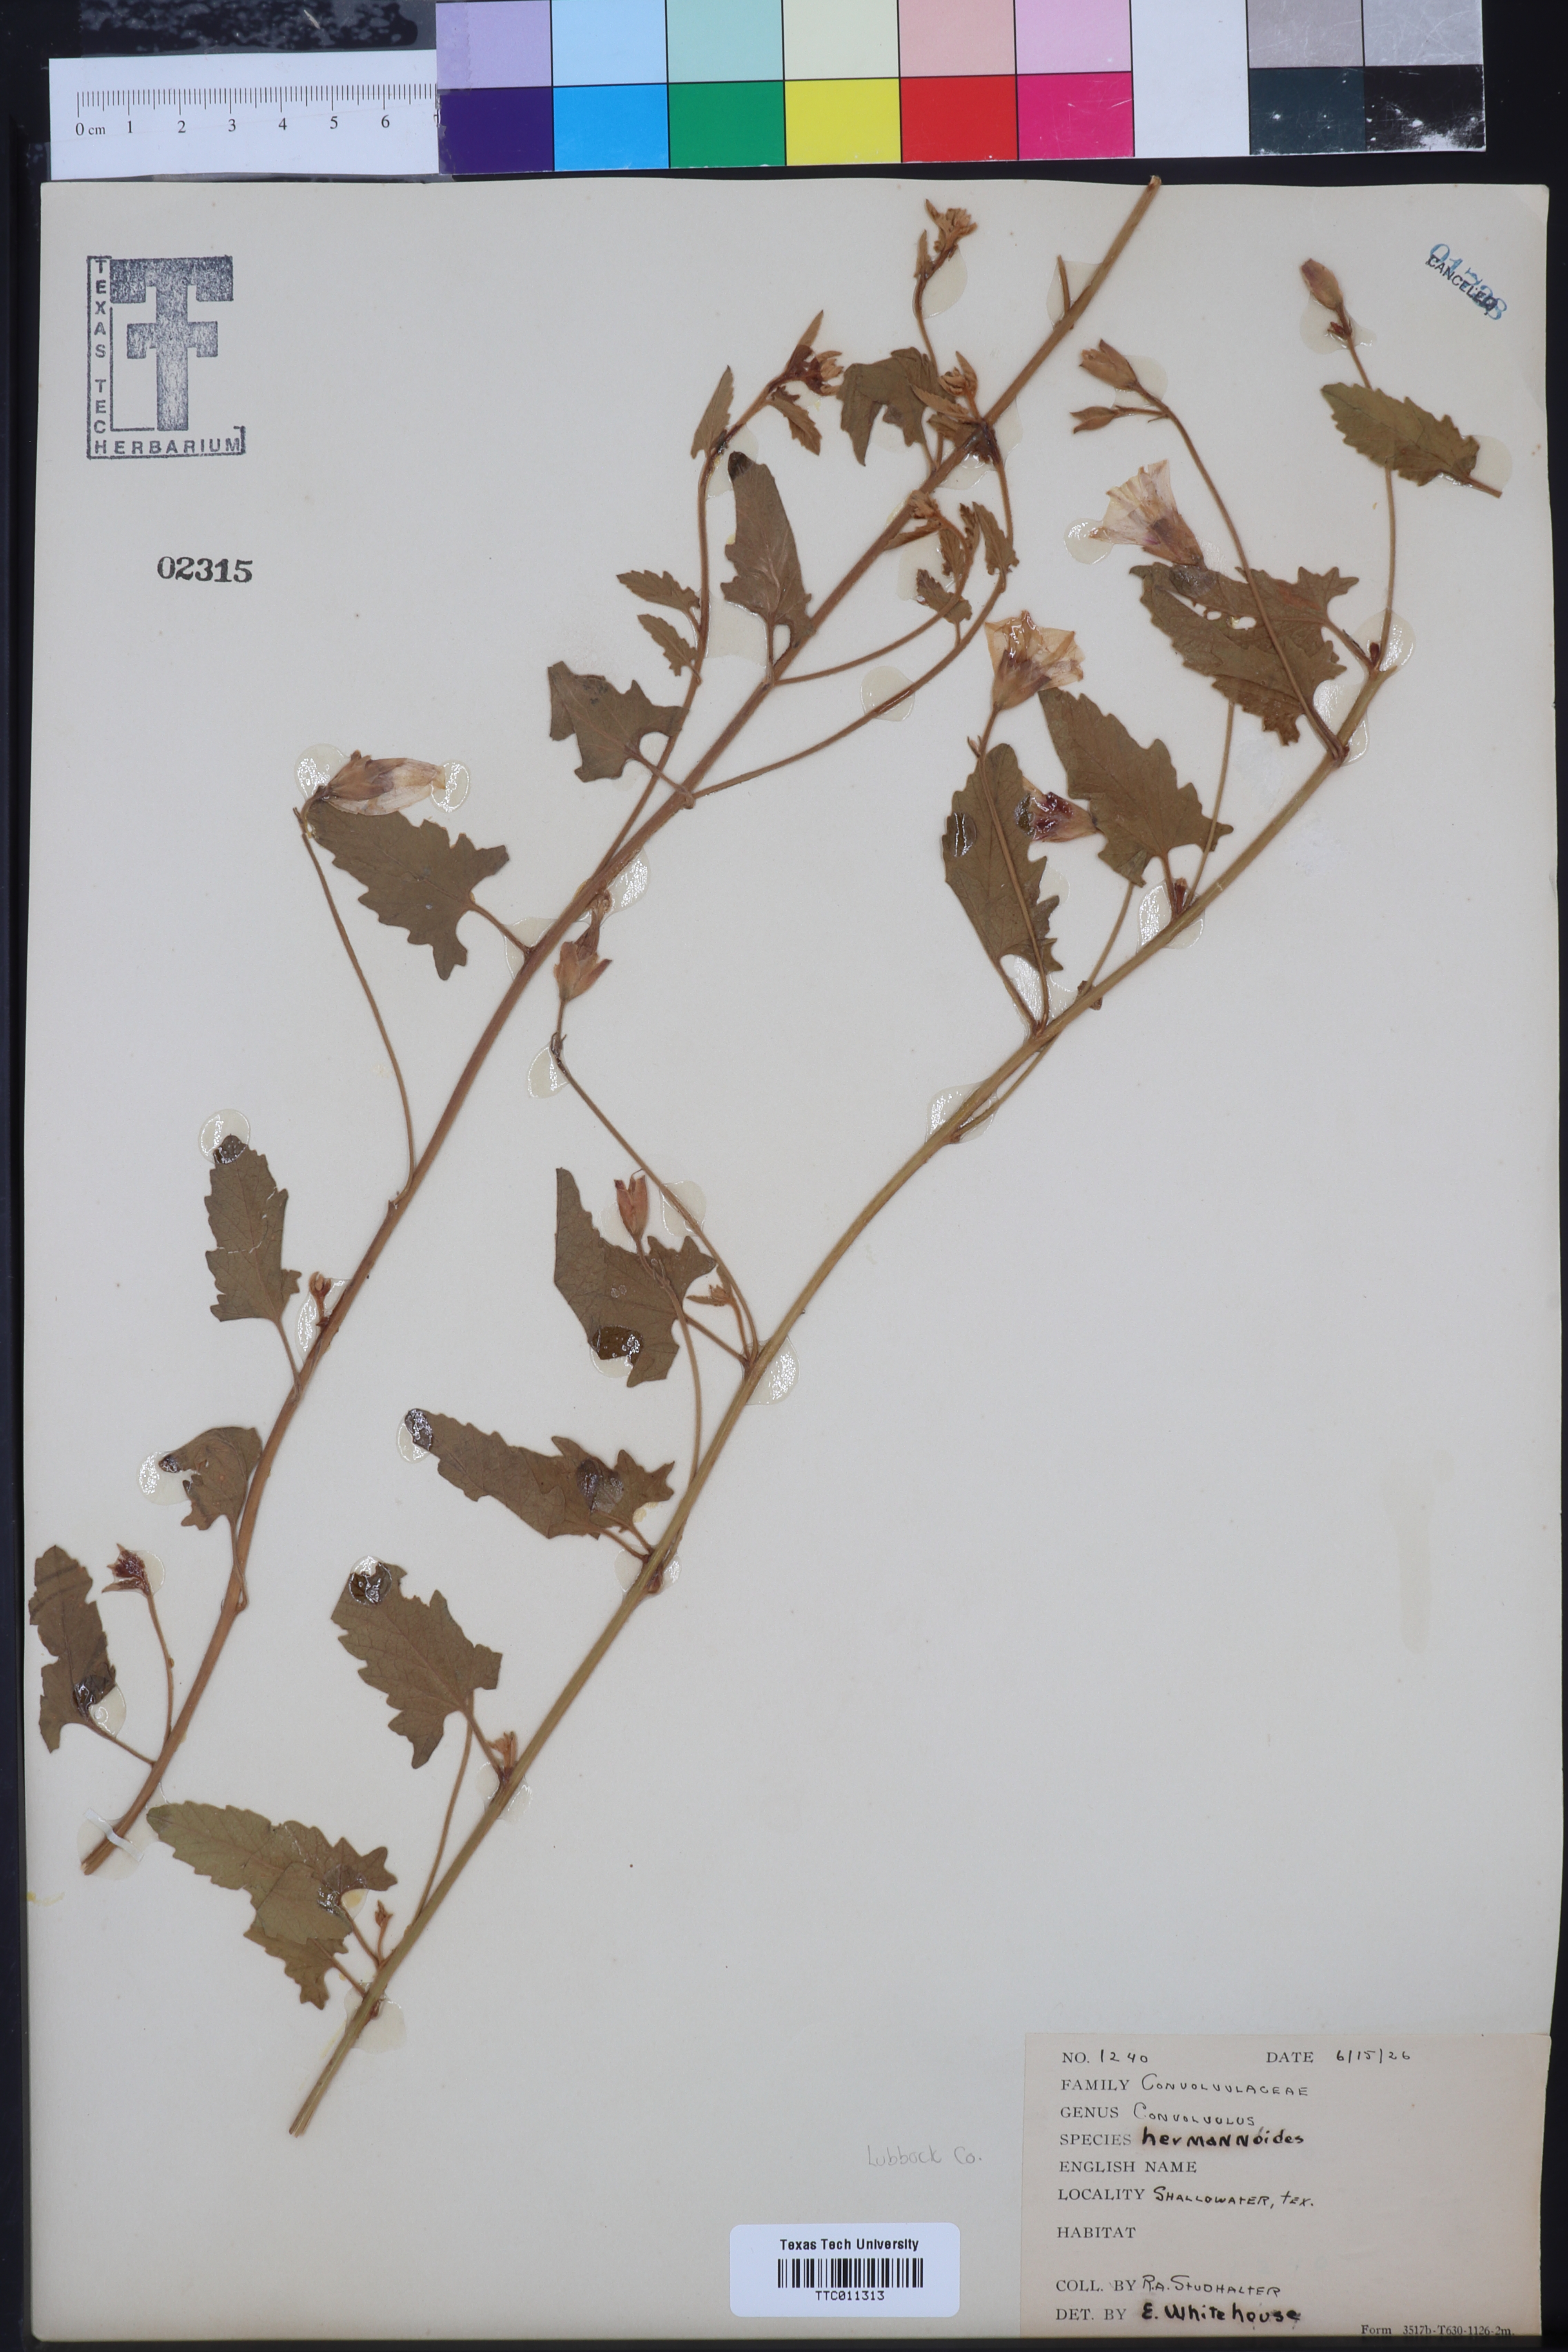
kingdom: Plantae
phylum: Tracheophyta
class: Magnoliopsida
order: Solanales
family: Convolvulaceae
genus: Convolvulus
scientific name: Convolvulus equitans
